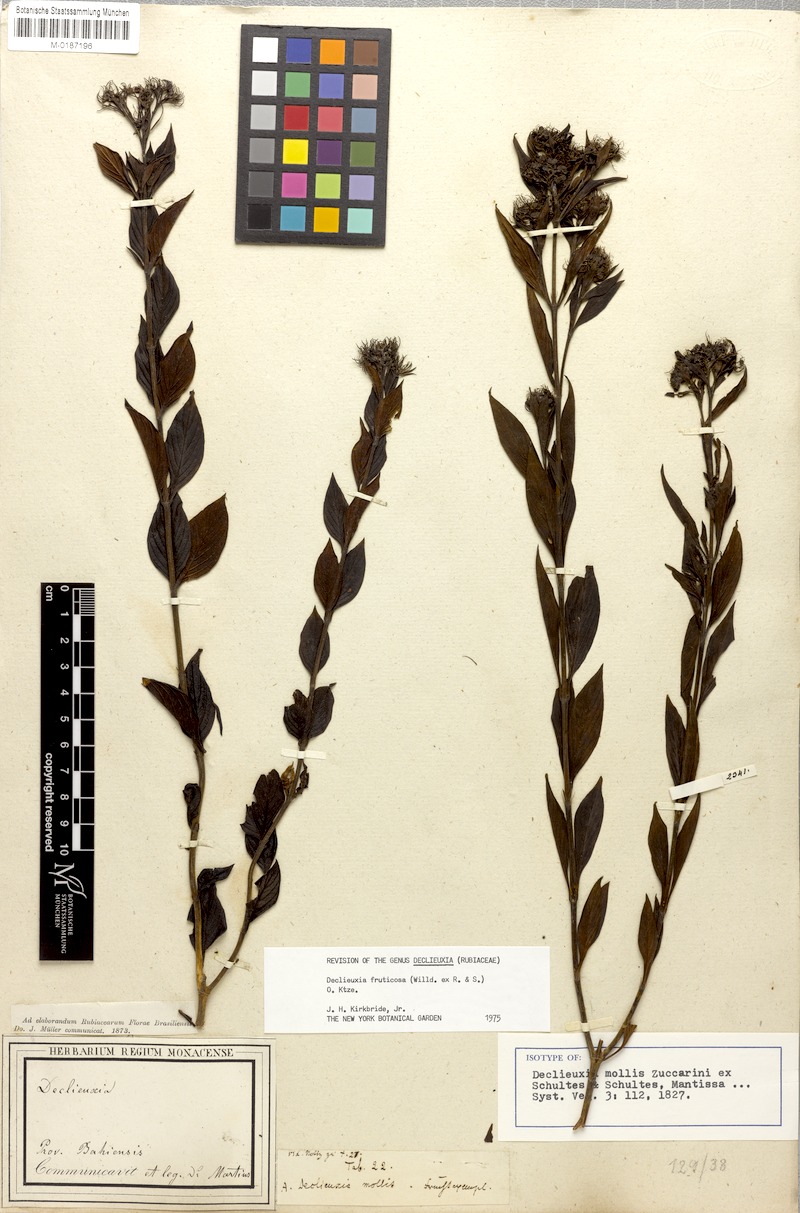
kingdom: Plantae
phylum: Tracheophyta
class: Magnoliopsida
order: Gentianales
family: Rubiaceae
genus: Declieuxia
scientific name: Declieuxia fruticosa
